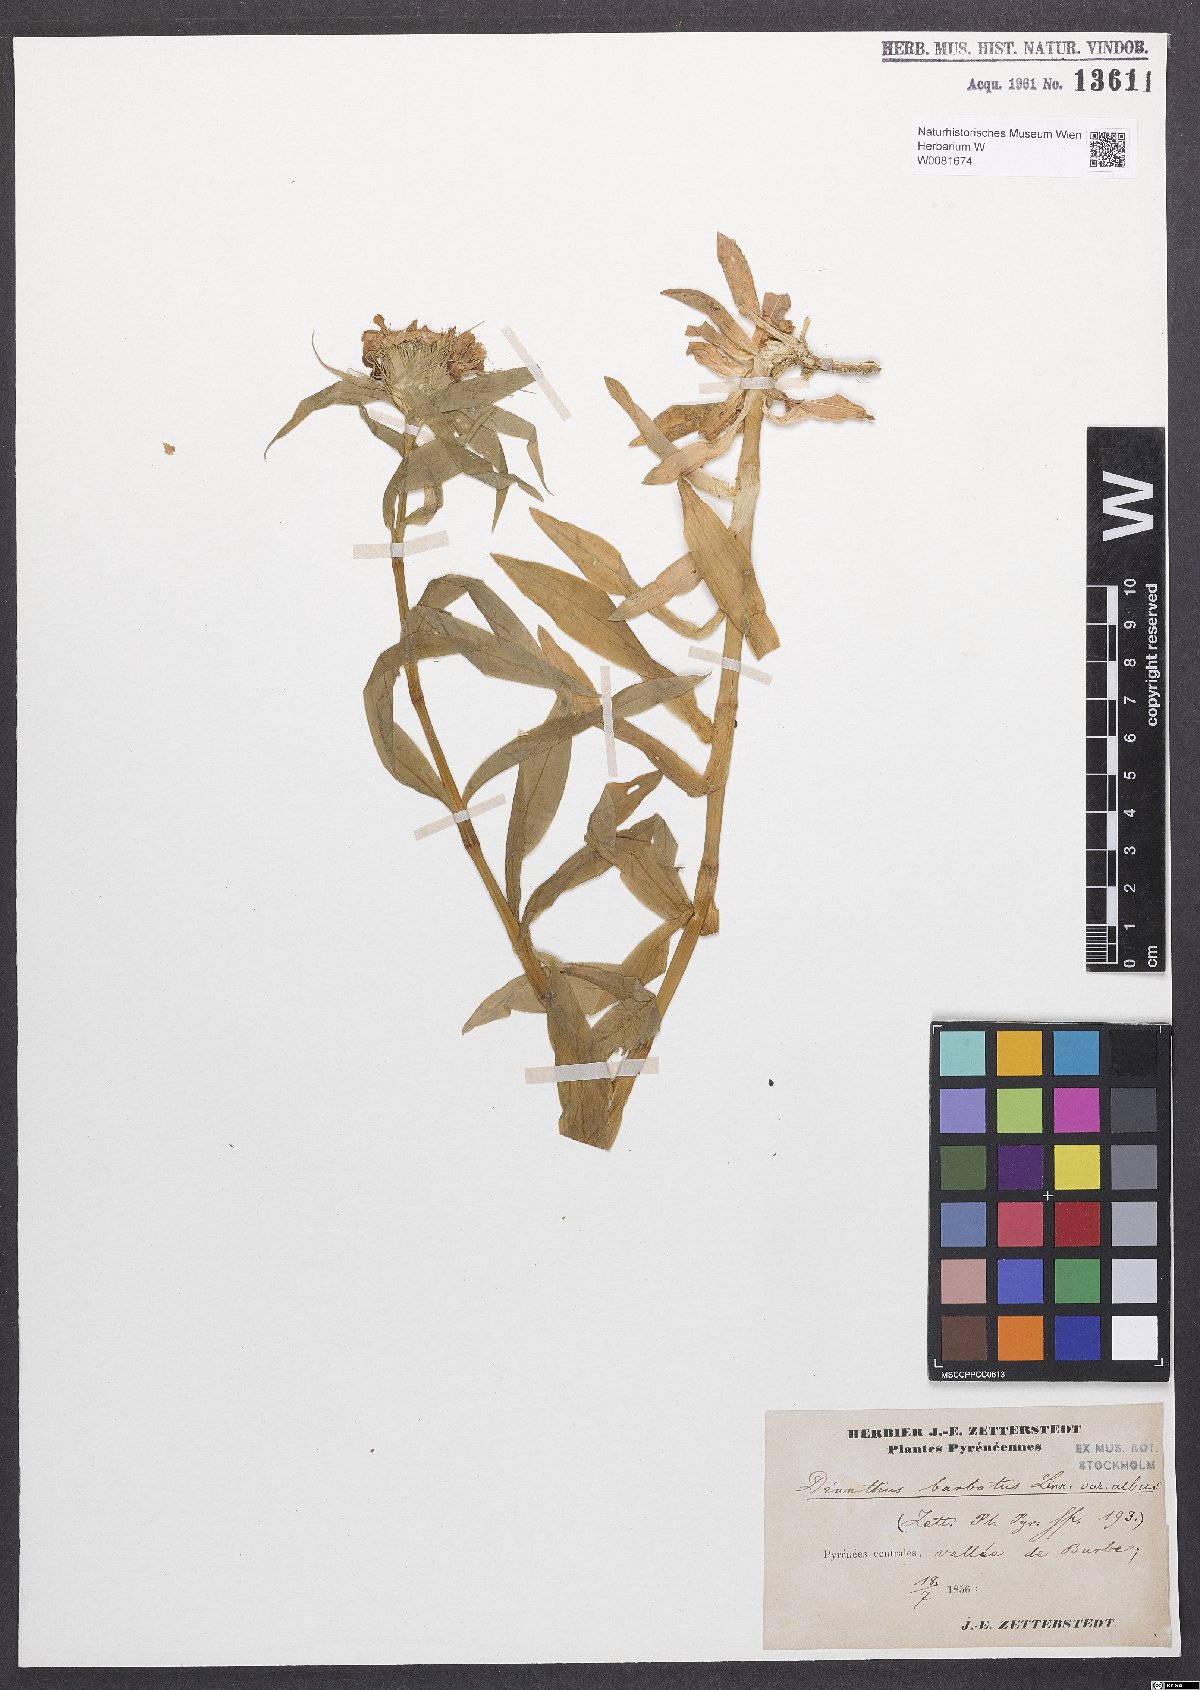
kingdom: Plantae
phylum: Tracheophyta
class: Magnoliopsida
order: Caryophyllales
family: Caryophyllaceae
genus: Dianthus
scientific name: Dianthus barbatus
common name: Sweet-william
